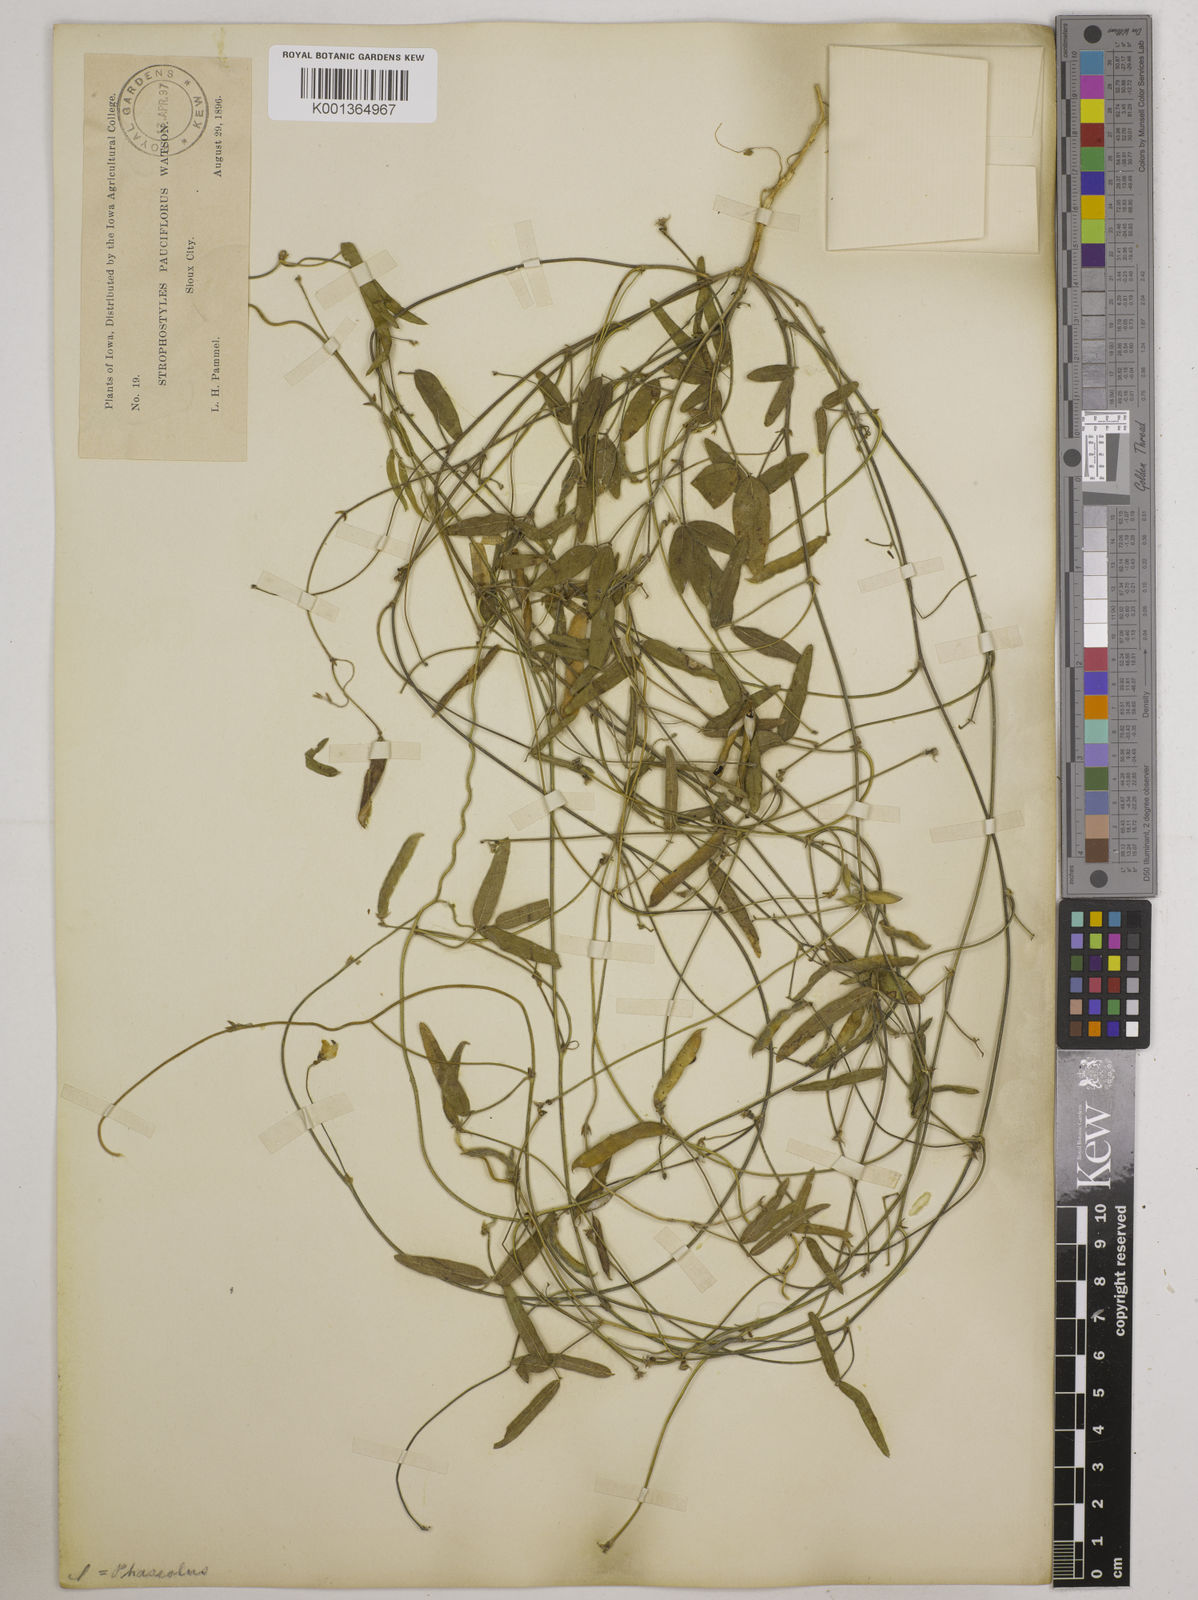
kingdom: Plantae
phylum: Tracheophyta
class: Magnoliopsida
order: Fabales
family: Fabaceae
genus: Strophostyles
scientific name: Strophostyles leiosperma
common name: Smooth-seed wild bean
